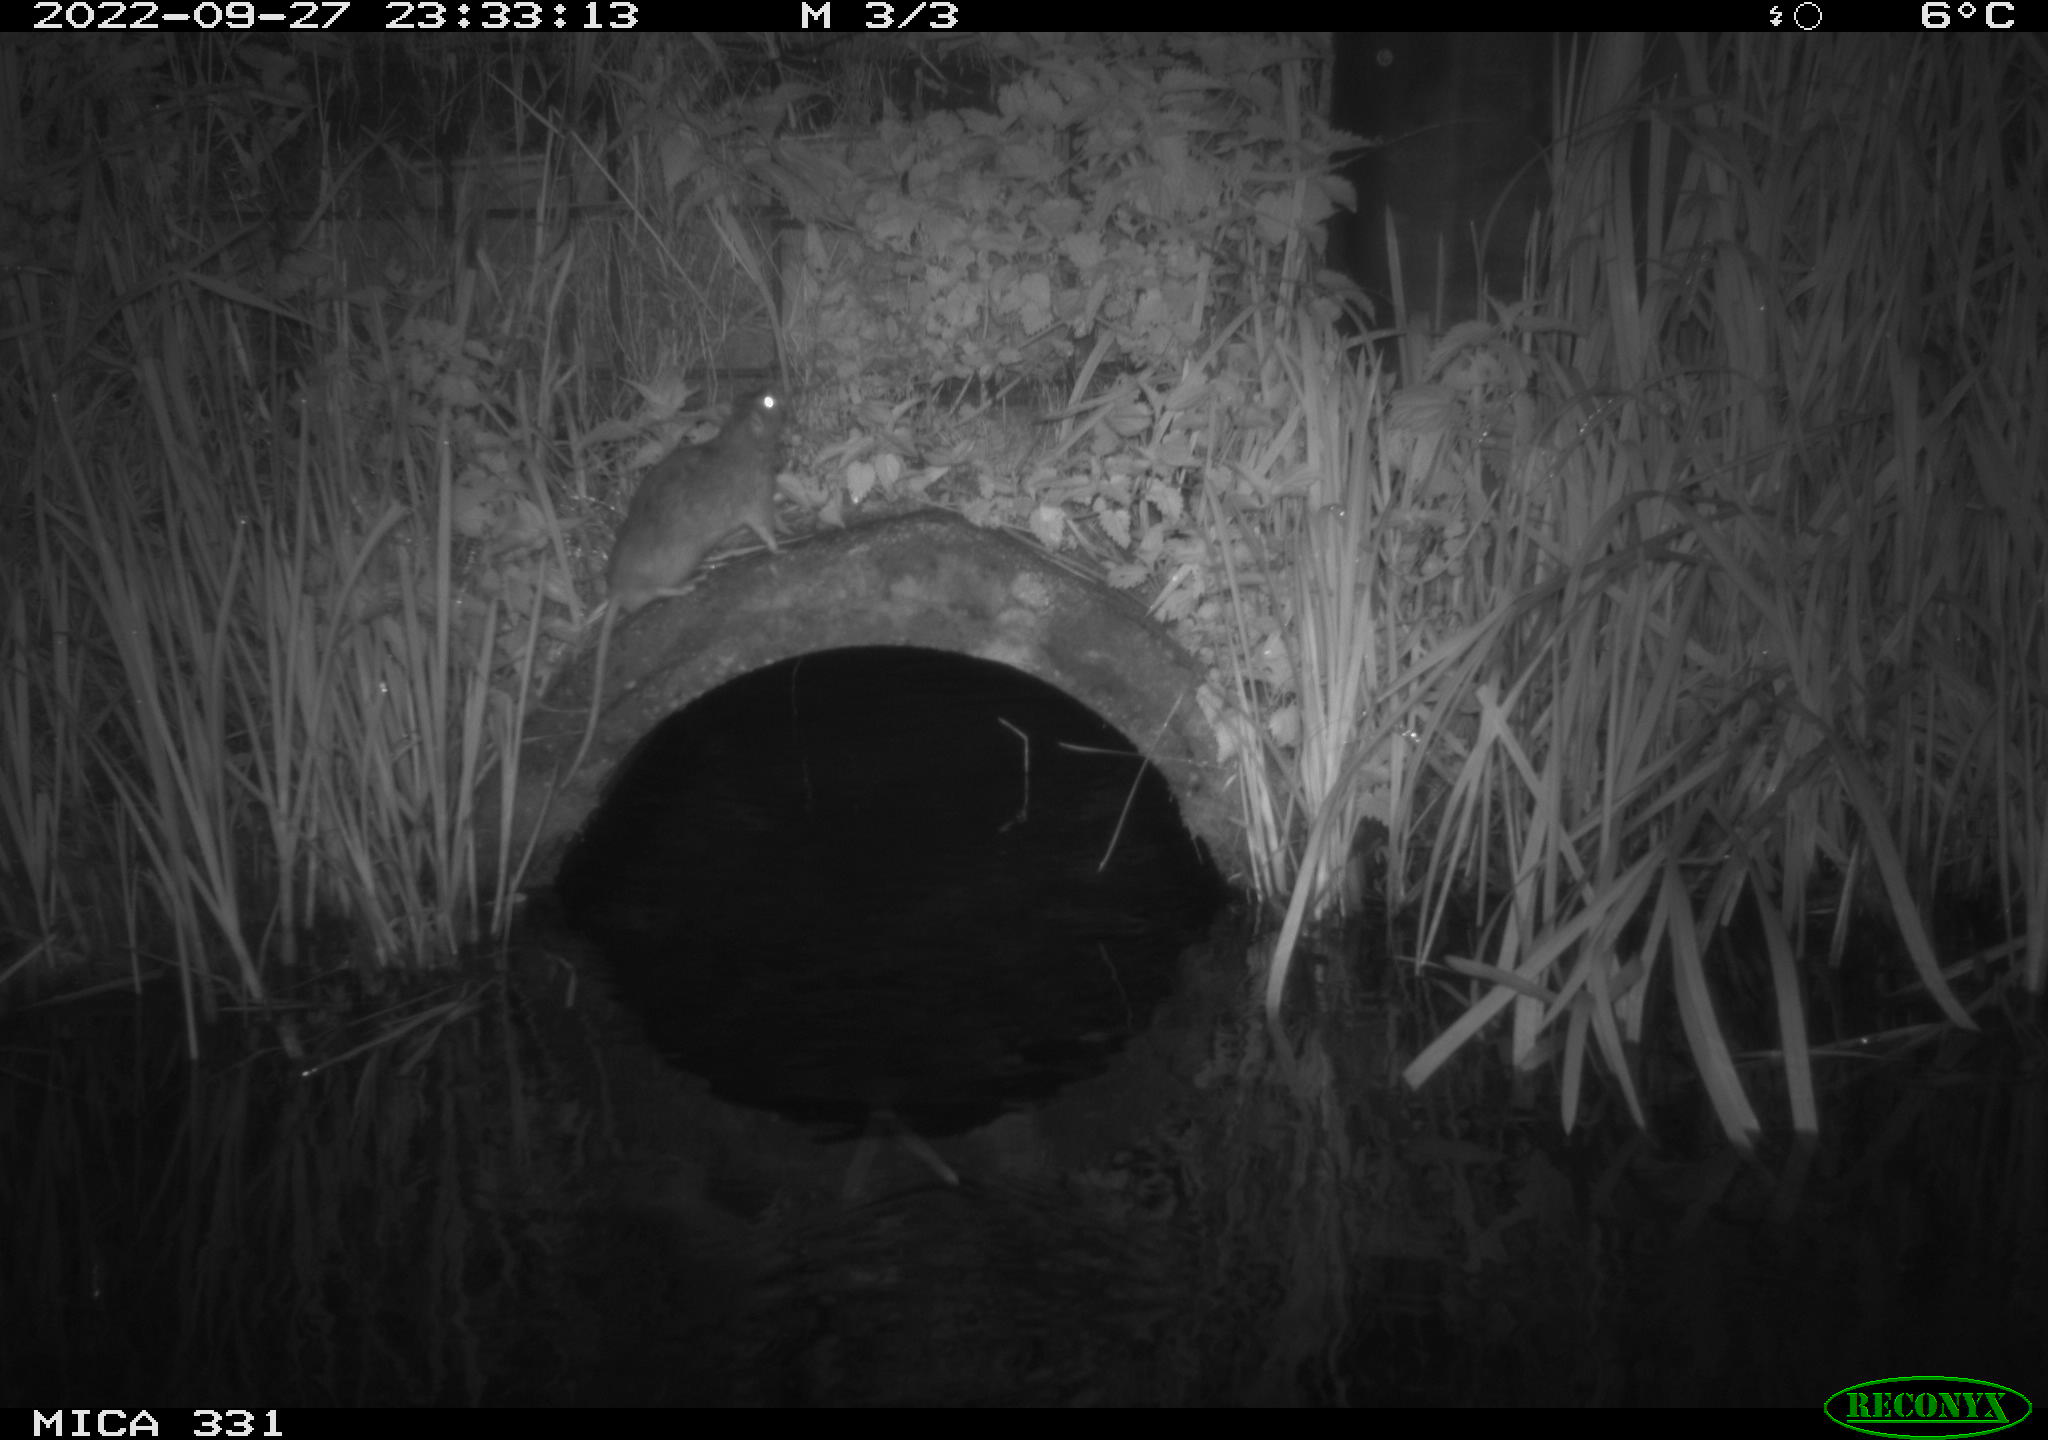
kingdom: Animalia
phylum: Chordata
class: Mammalia
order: Rodentia
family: Muridae
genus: Rattus
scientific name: Rattus norvegicus
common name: Brown rat
